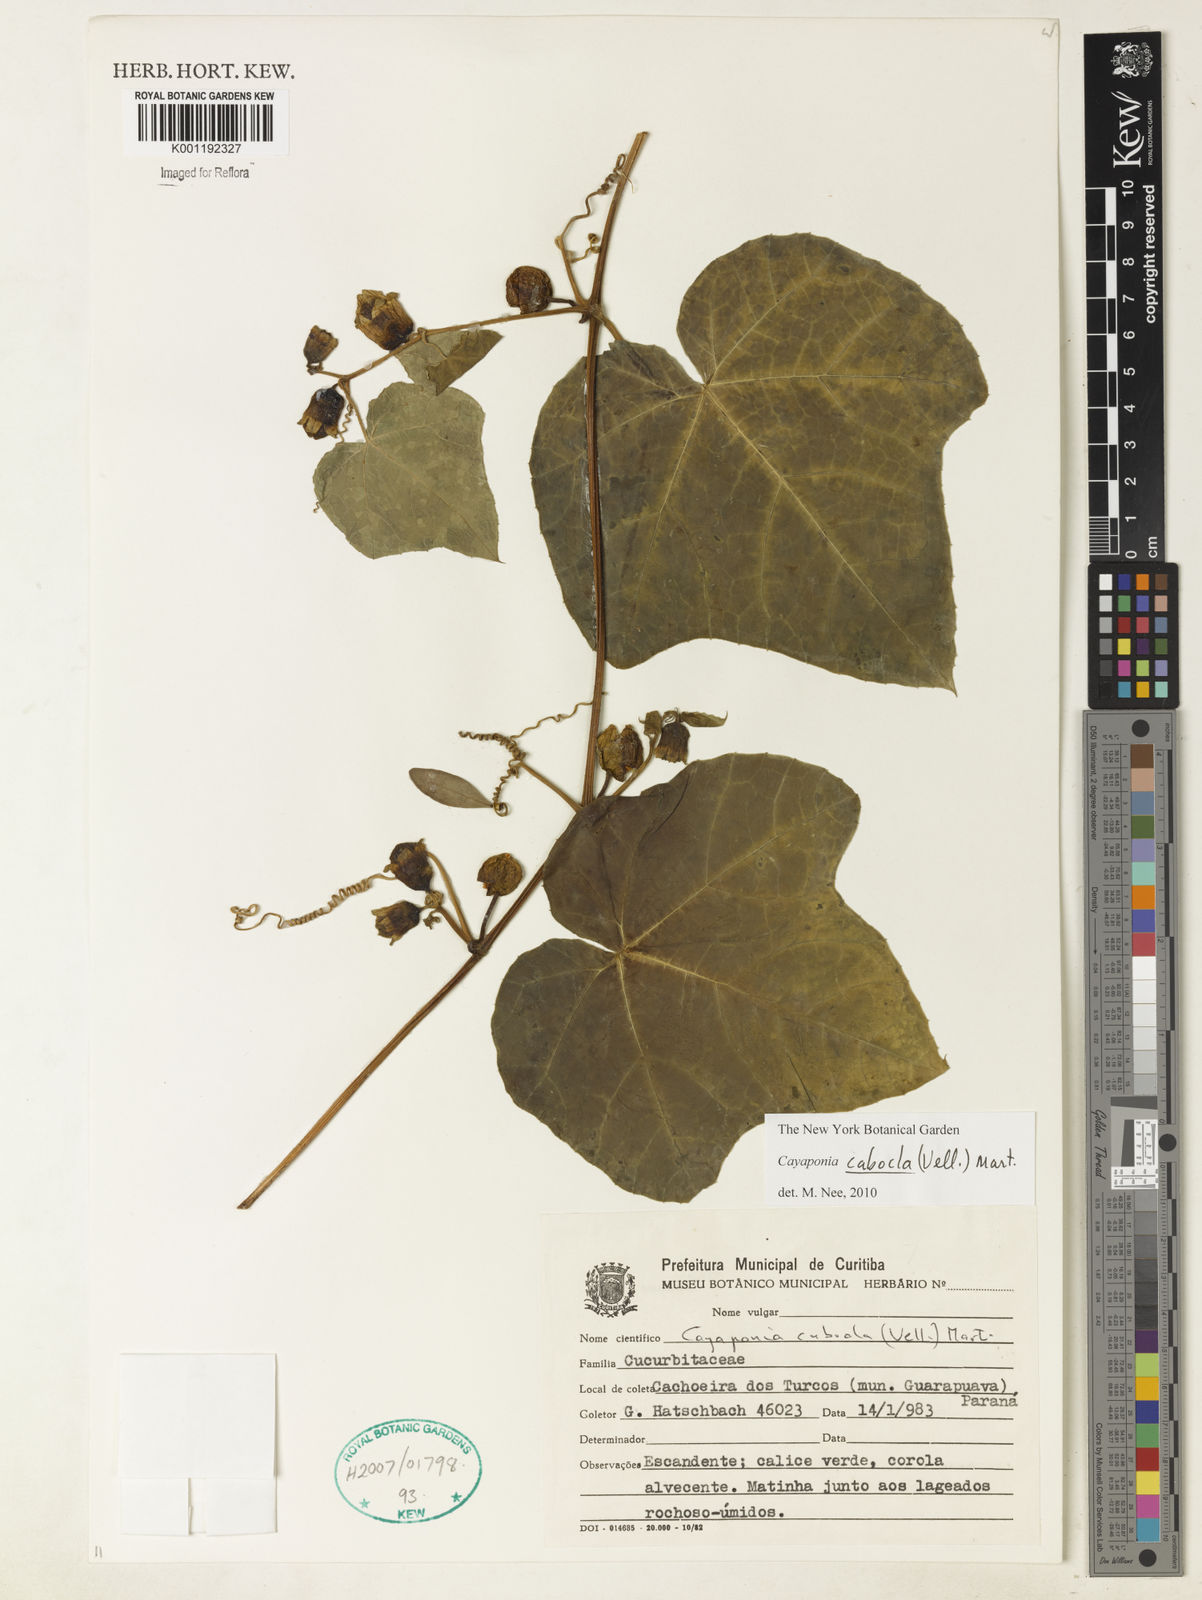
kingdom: Plantae
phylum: Tracheophyta
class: Magnoliopsida
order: Cucurbitales
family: Cucurbitaceae
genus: Cayaponia
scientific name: Cayaponia cabocla
